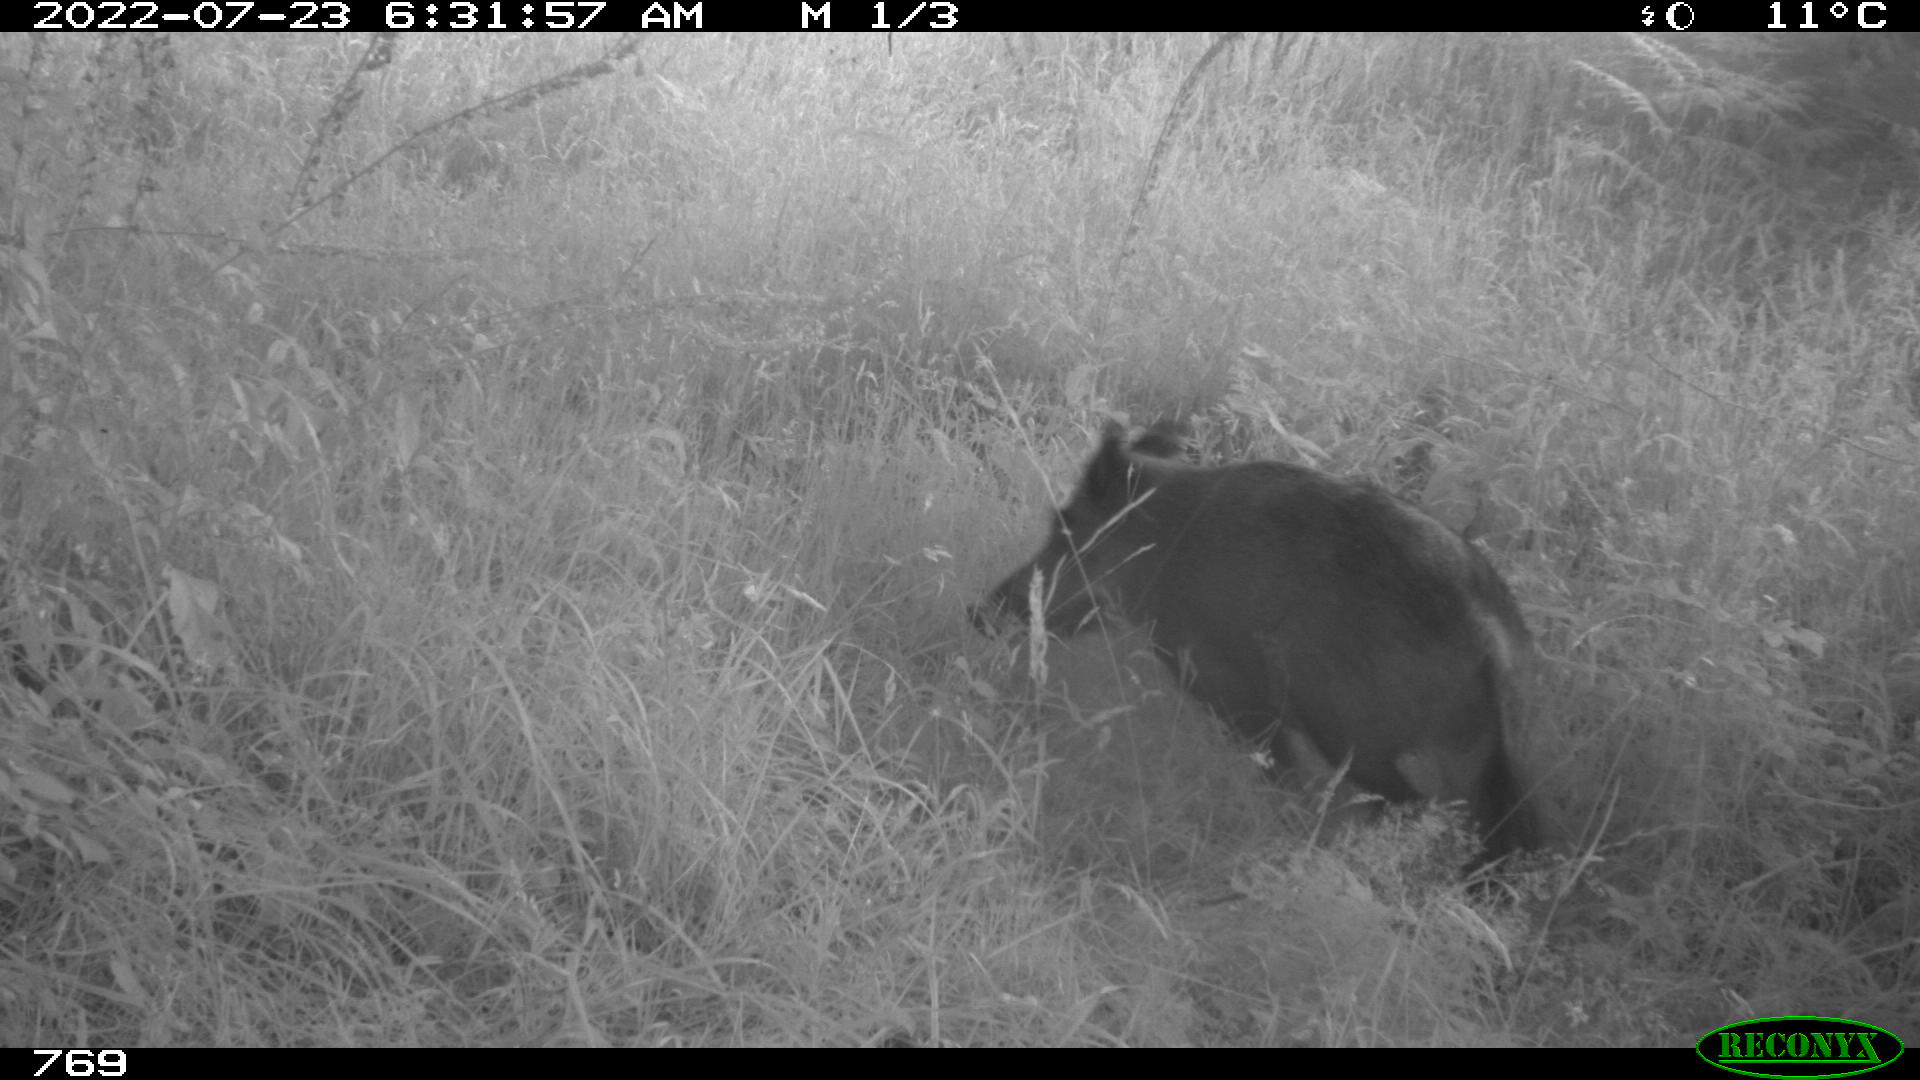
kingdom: Animalia
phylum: Chordata
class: Mammalia
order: Artiodactyla
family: Suidae
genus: Sus
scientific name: Sus scrofa
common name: Wild boar
